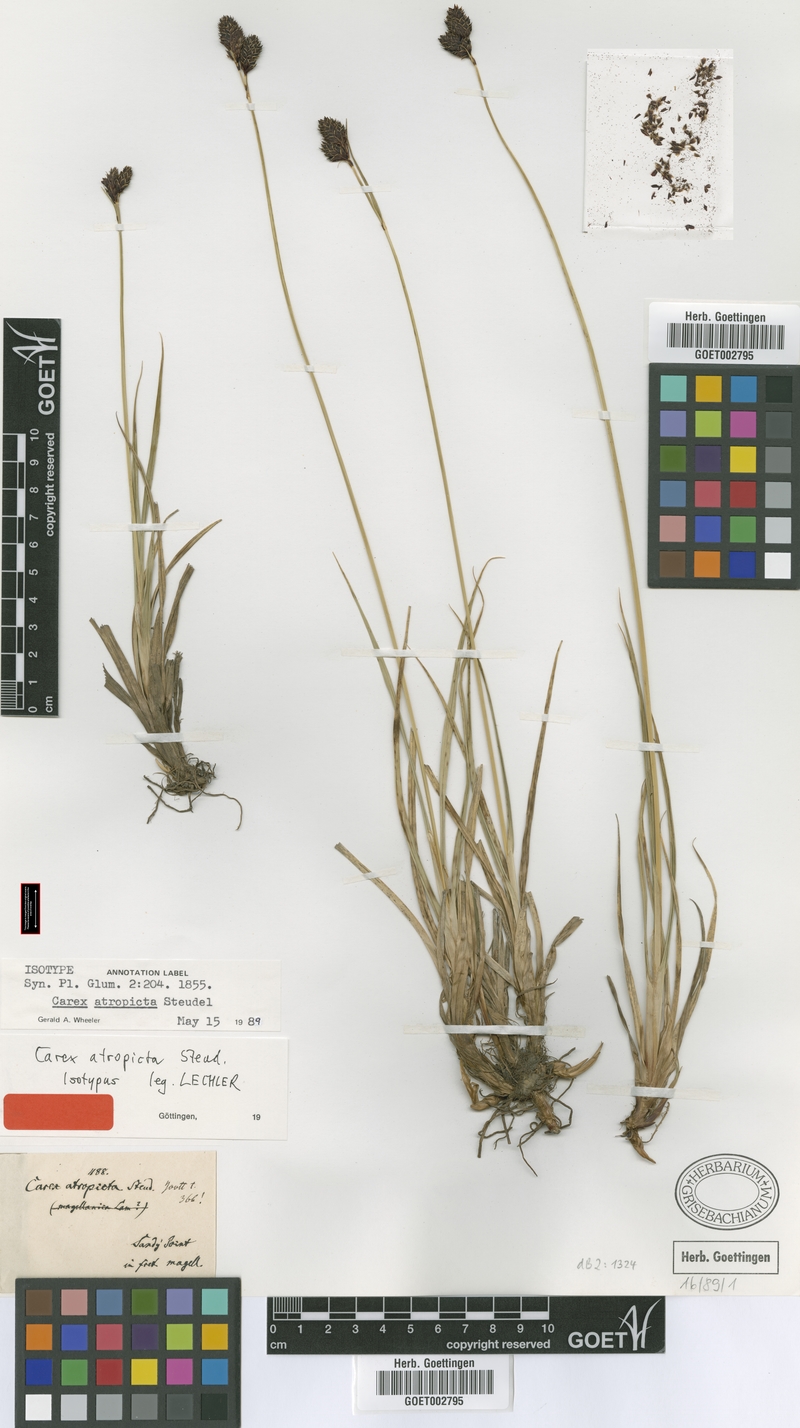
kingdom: Plantae
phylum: Tracheophyta
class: Liliopsida
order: Poales
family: Cyperaceae
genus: Carex
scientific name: Carex atropicta
